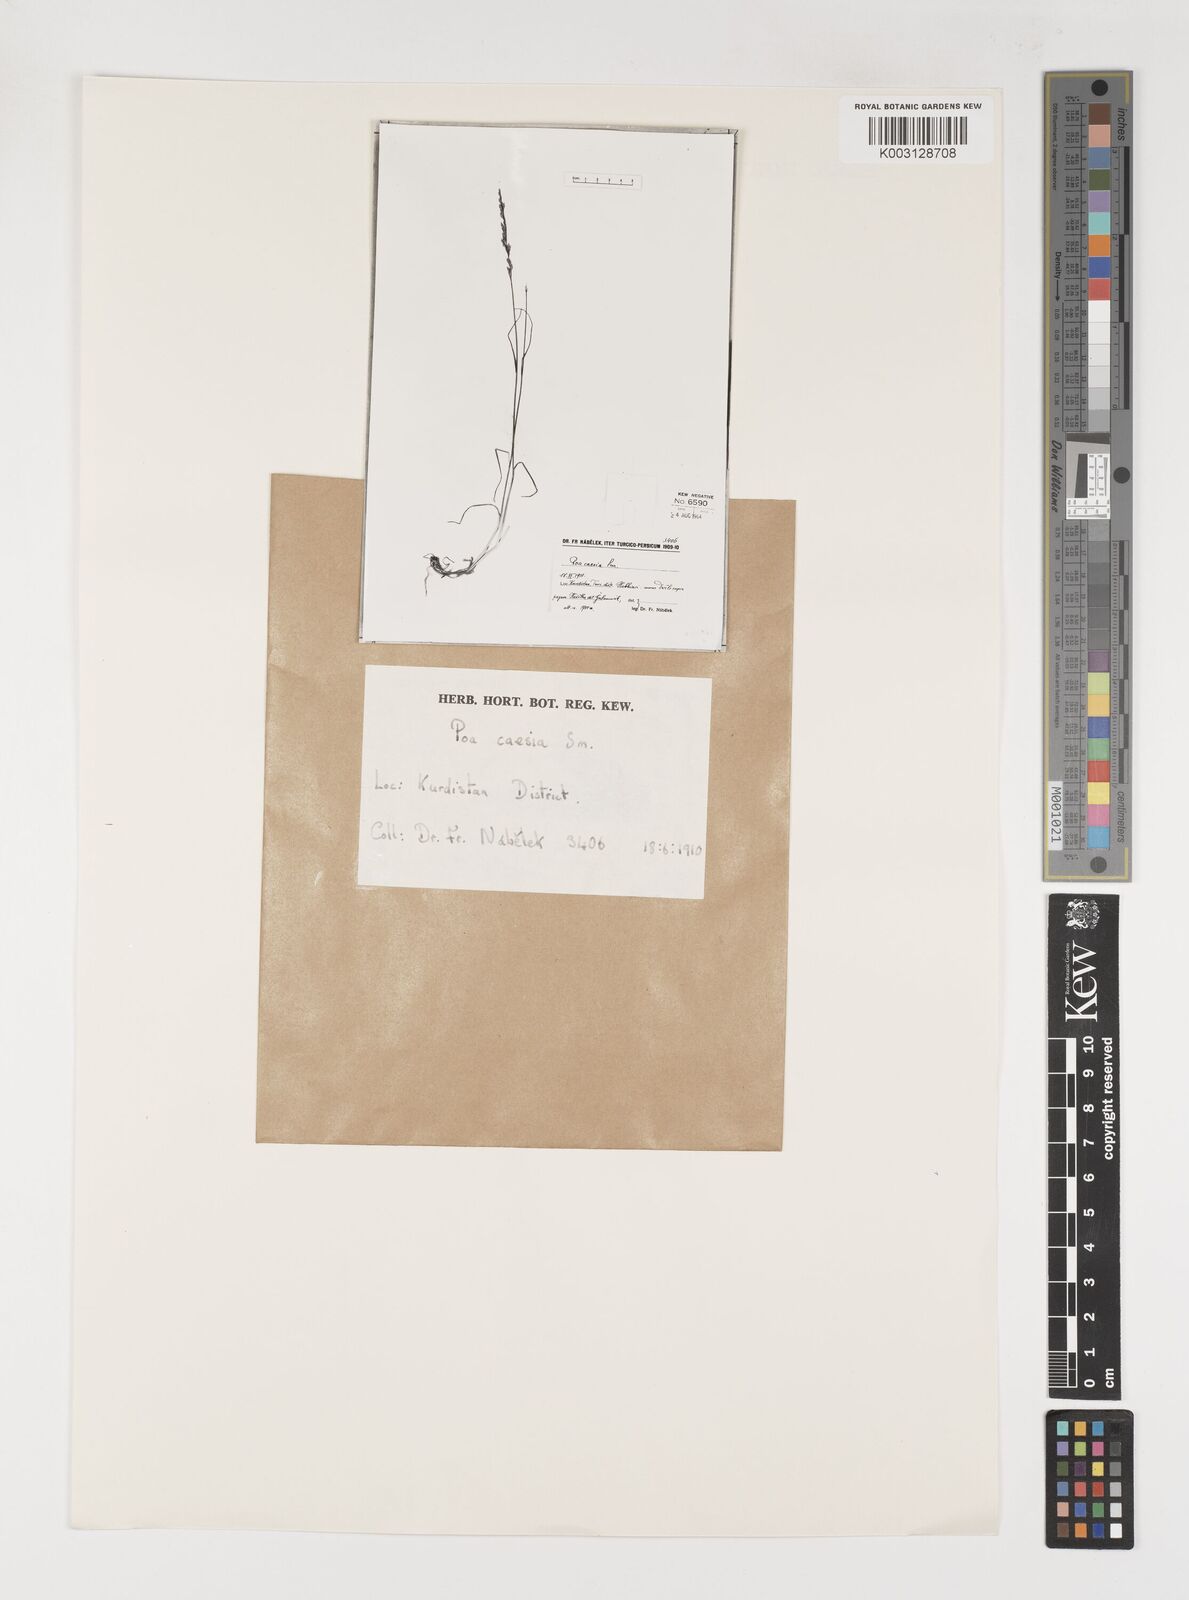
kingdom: Plantae
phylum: Tracheophyta
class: Liliopsida
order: Poales
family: Poaceae
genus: Poa
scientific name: Poa araratica
